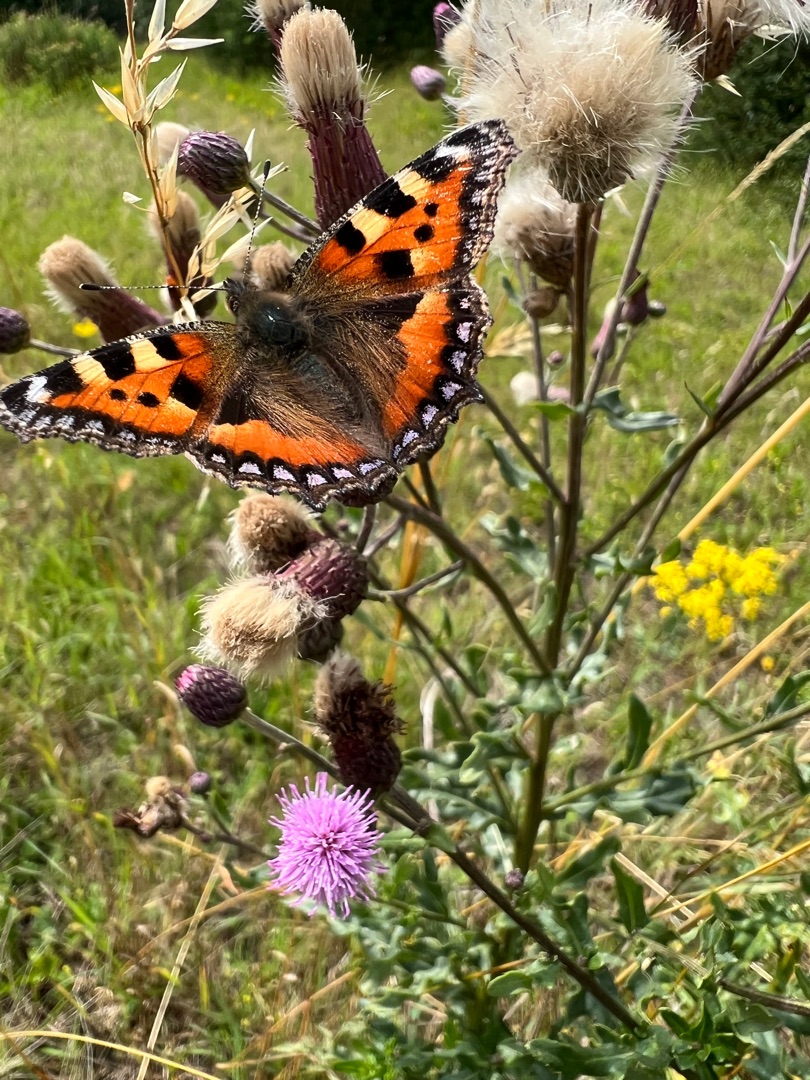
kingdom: Animalia
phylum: Arthropoda
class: Insecta
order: Lepidoptera
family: Nymphalidae
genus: Aglais
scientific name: Aglais urticae
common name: Nældens takvinge
